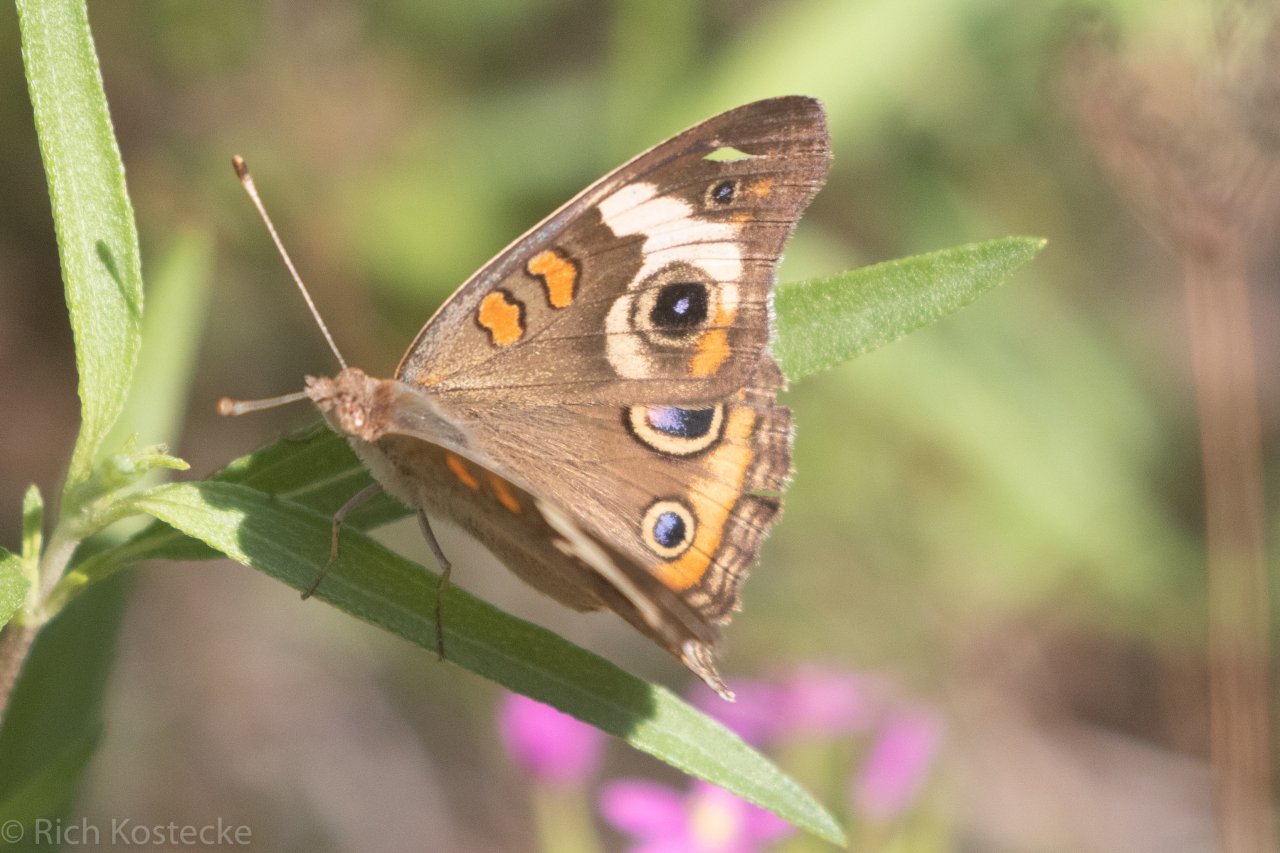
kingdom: Animalia
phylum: Arthropoda
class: Insecta
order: Lepidoptera
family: Nymphalidae
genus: Junonia
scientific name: Junonia coenia
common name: Common Buckeye
